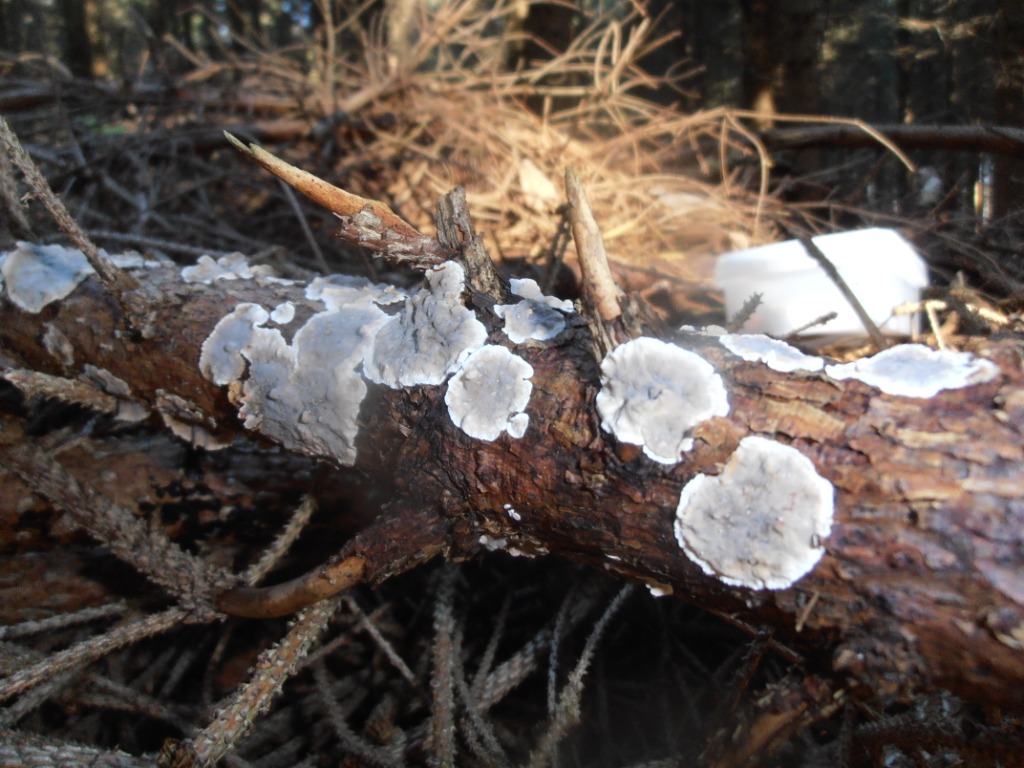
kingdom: Fungi
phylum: Basidiomycota
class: Agaricomycetes
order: Russulales
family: Stereaceae
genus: Stereum
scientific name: Stereum sanguinolentum
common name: blødende lædersvamp
